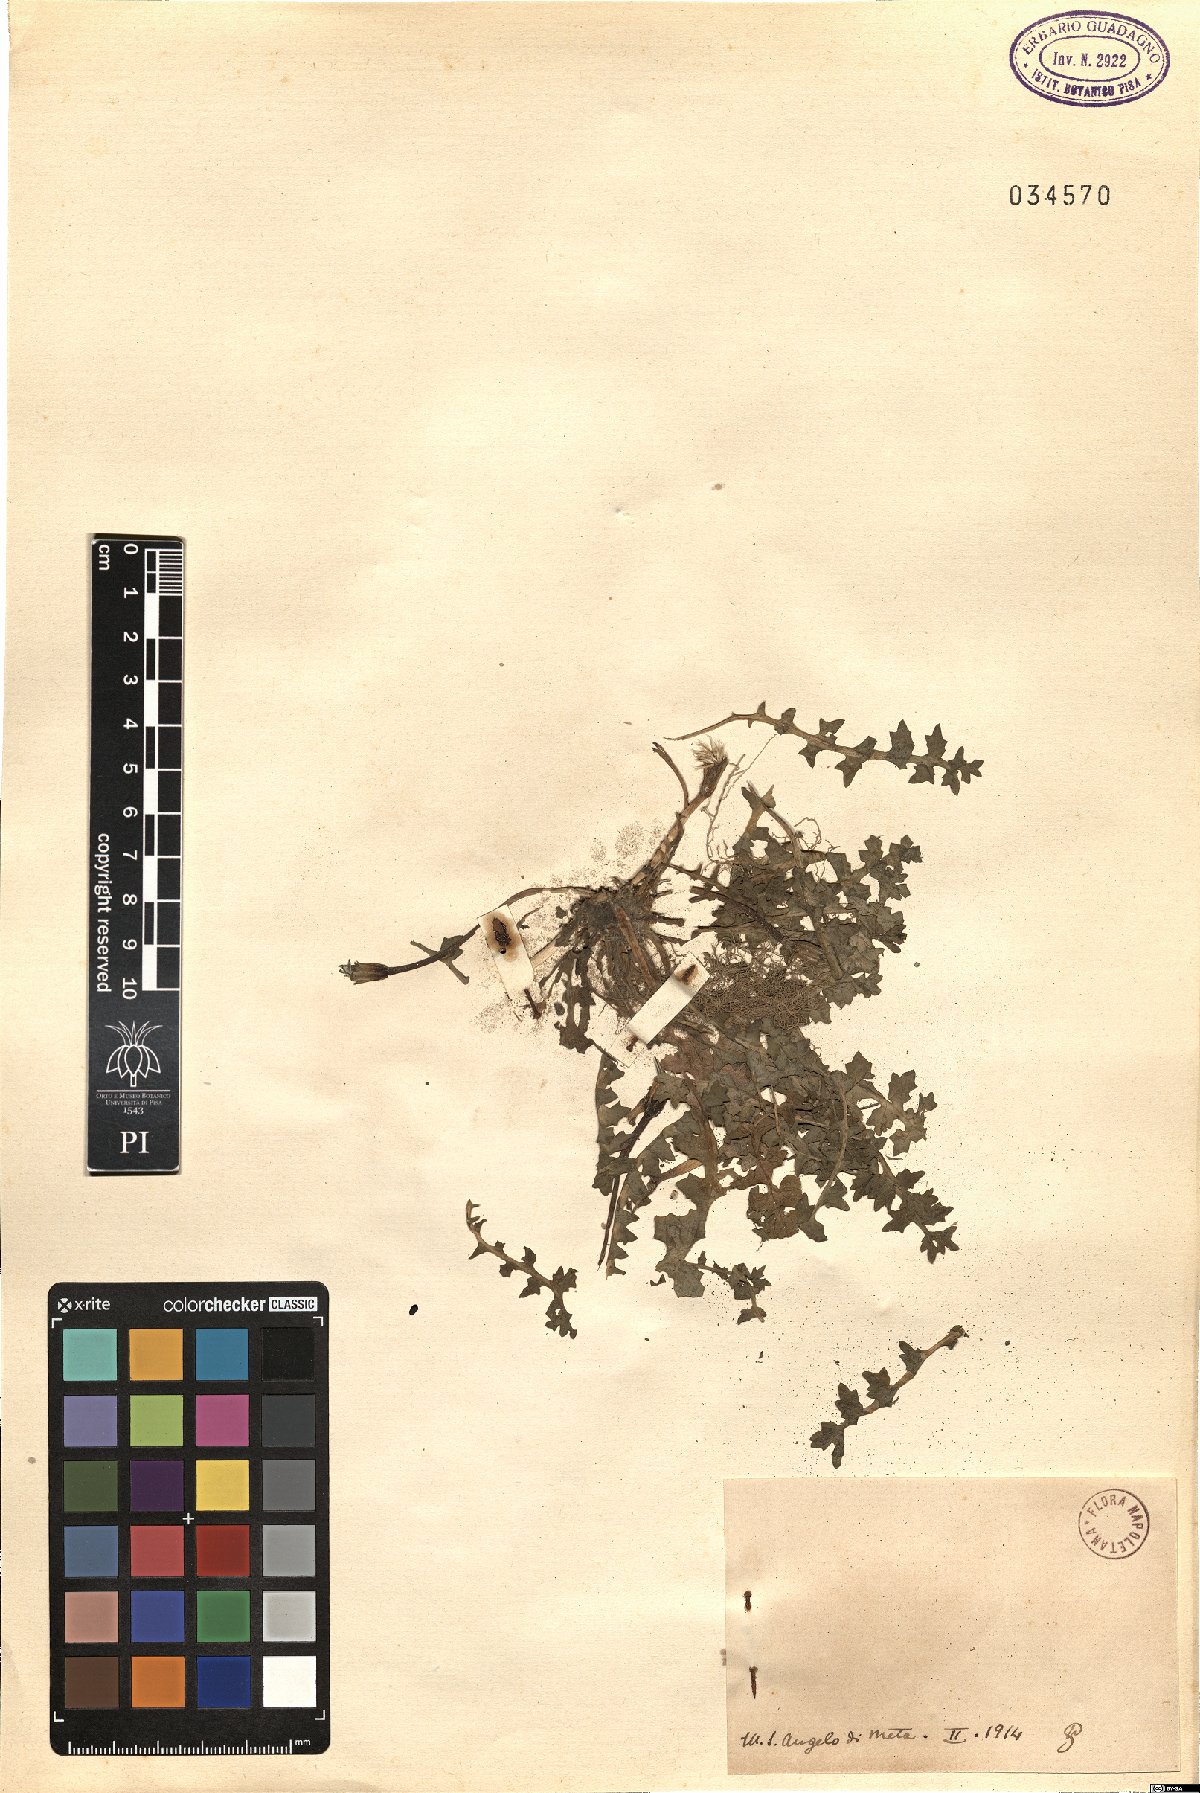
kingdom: Plantae
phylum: Tracheophyta
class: Magnoliopsida
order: Asterales
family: Asteraceae
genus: Hyoseris
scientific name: Hyoseris
